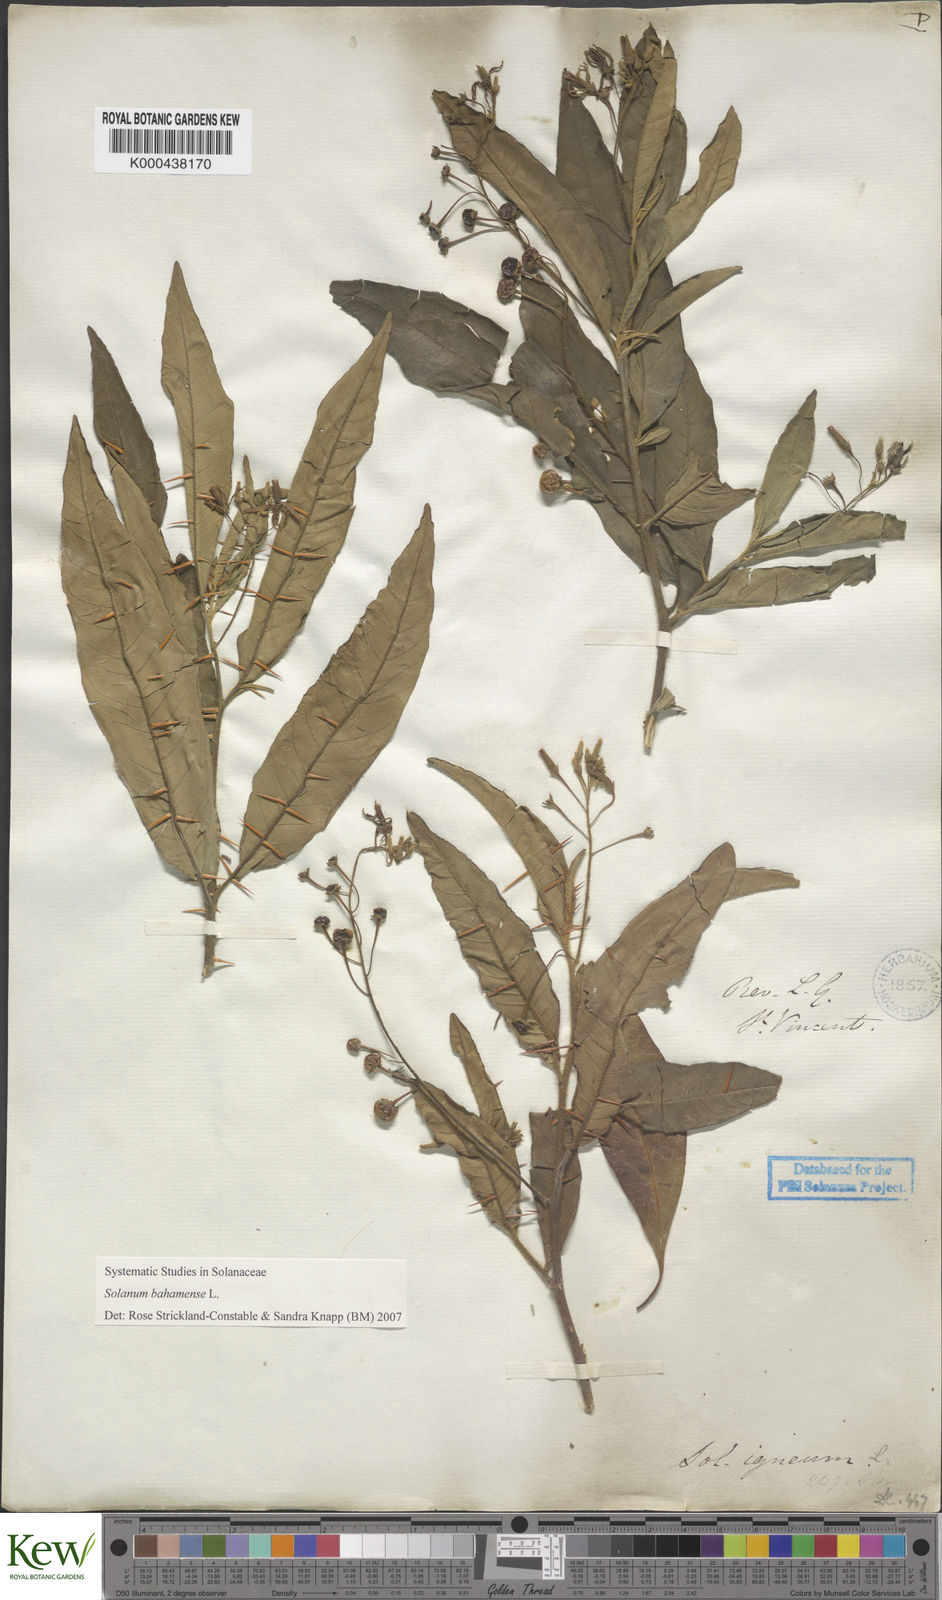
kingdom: Plantae
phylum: Tracheophyta
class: Magnoliopsida
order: Solanales
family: Solanaceae
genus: Solanum
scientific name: Solanum bahamense
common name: Canker-berry
